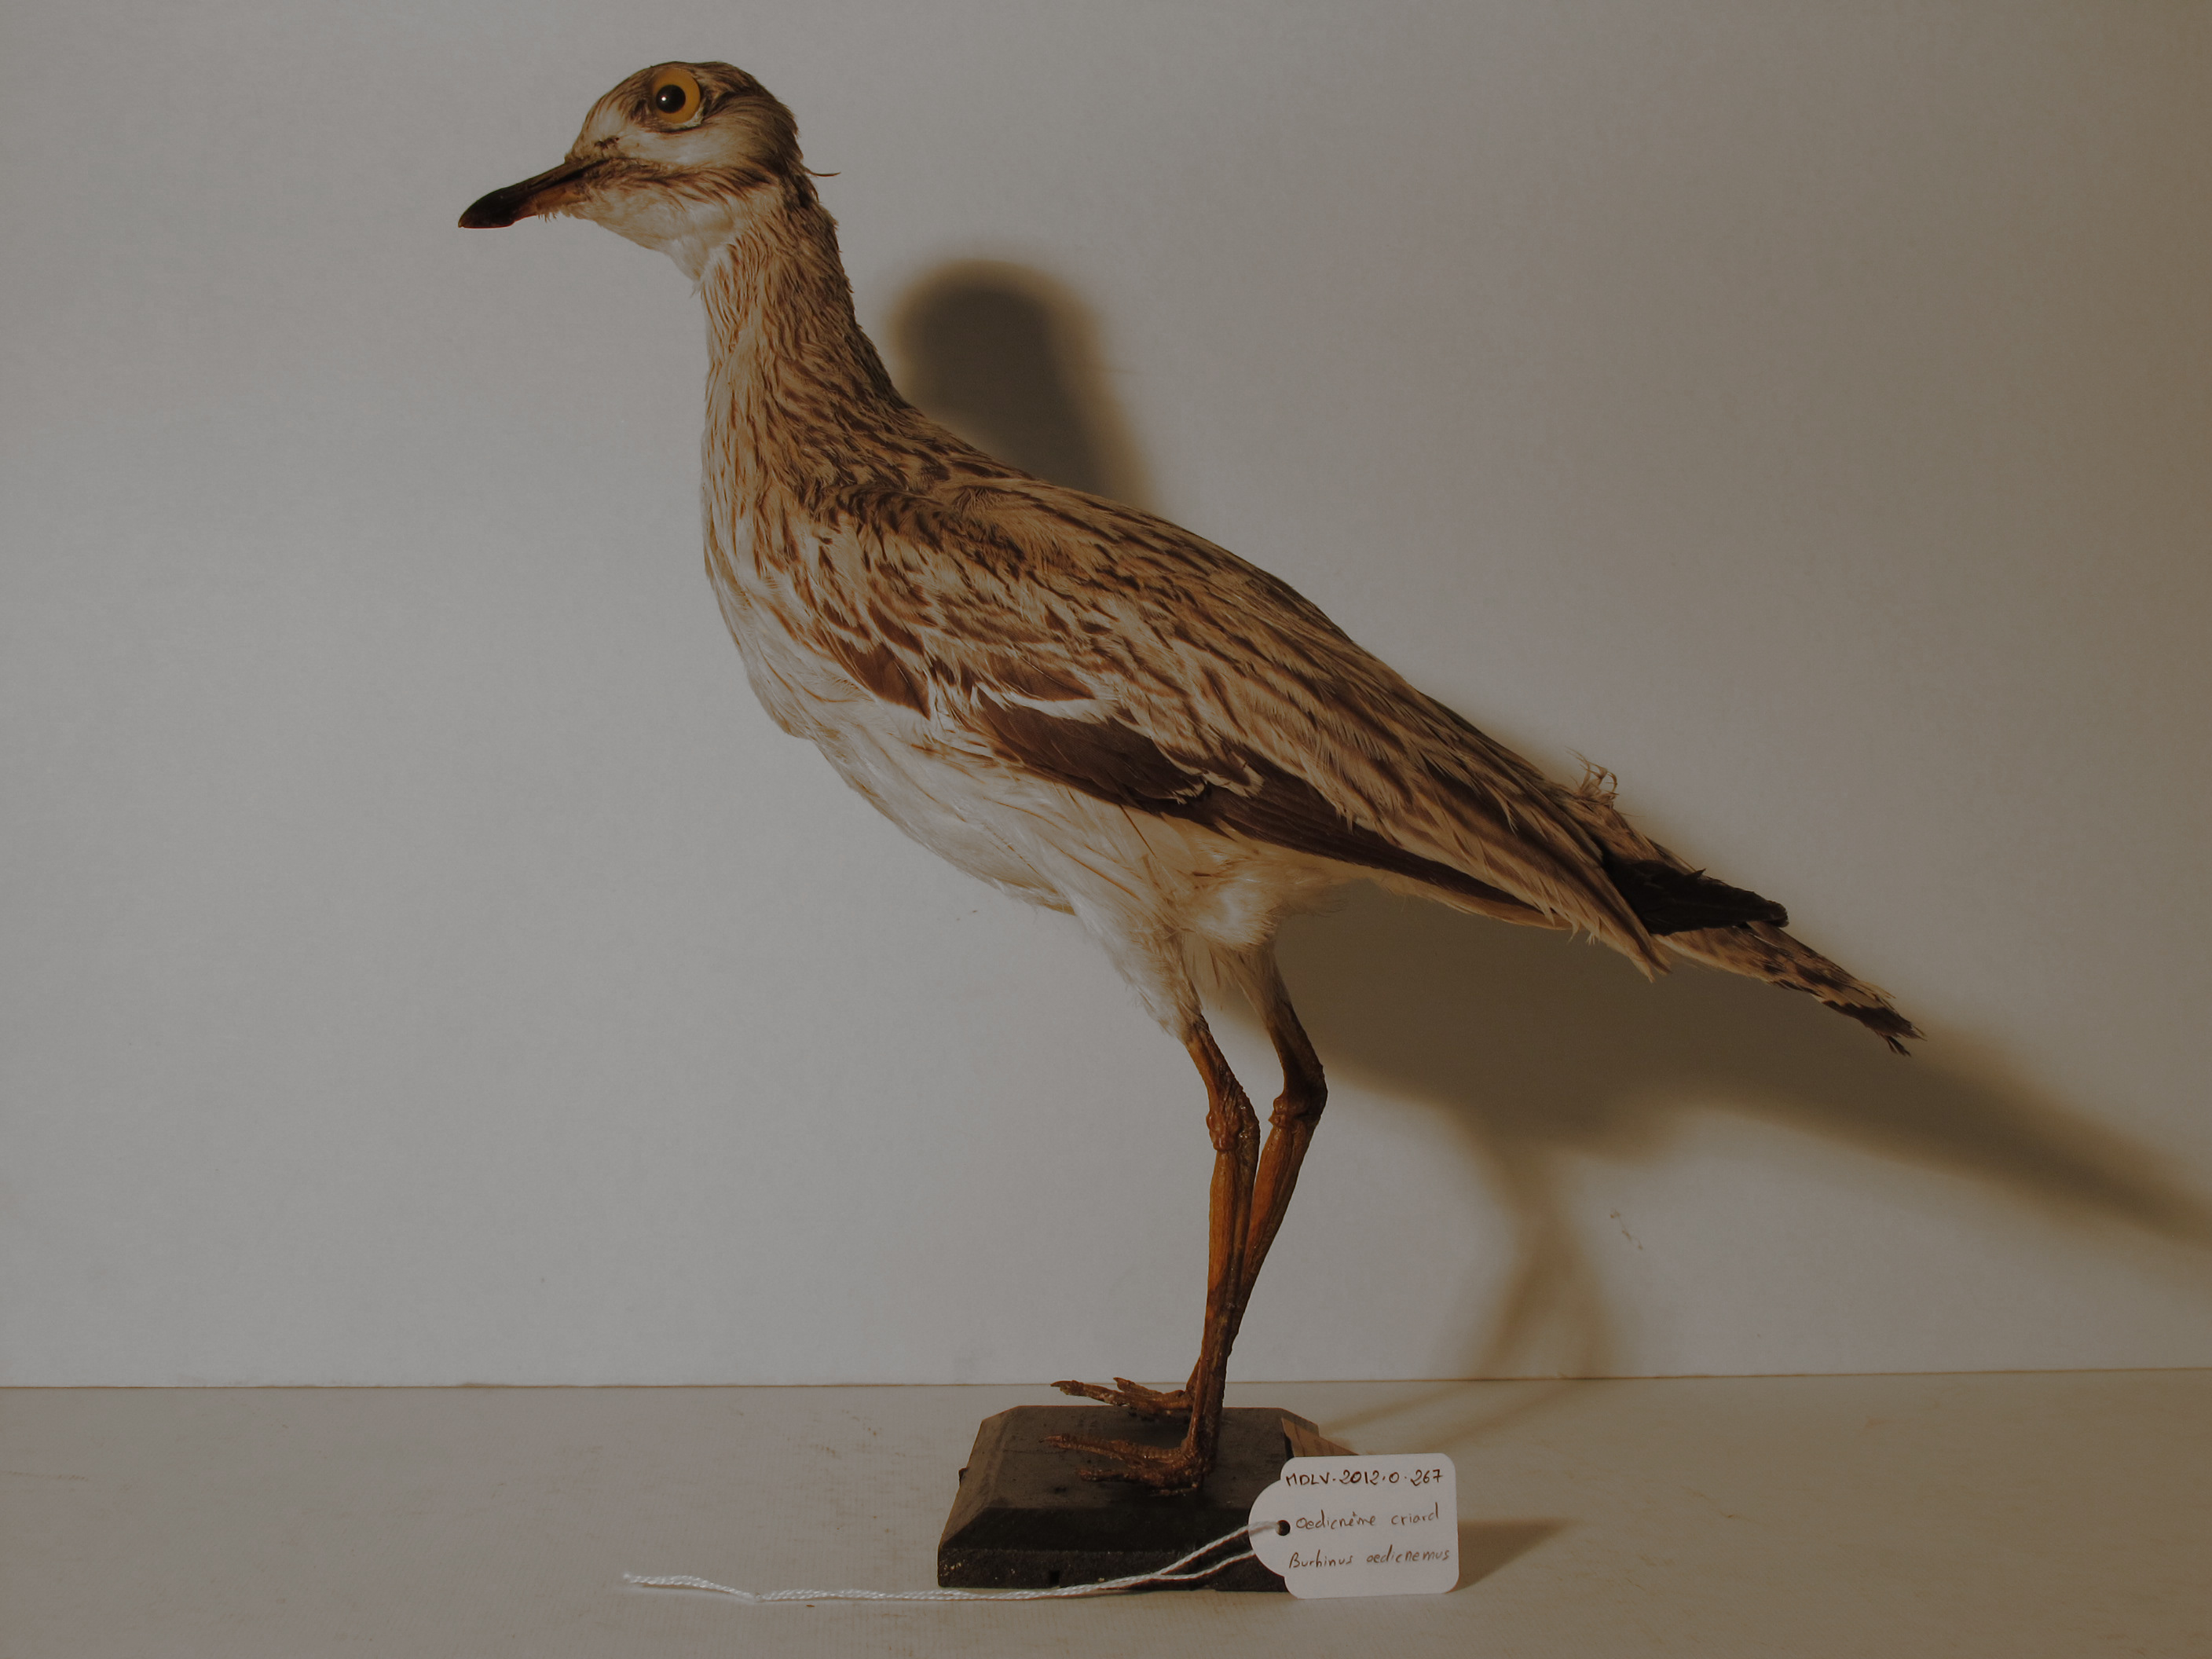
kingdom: Animalia
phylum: Chordata
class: Aves
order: Charadriiformes
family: Burhinidae
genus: Burhinus
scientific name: Burhinus oedicnemus
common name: Stone-curlew
